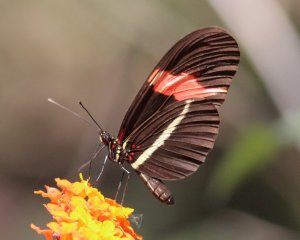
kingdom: Animalia
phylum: Arthropoda
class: Insecta
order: Lepidoptera
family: Nymphalidae
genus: Heliconius
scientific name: Heliconius erato
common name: Erato Heliconian
